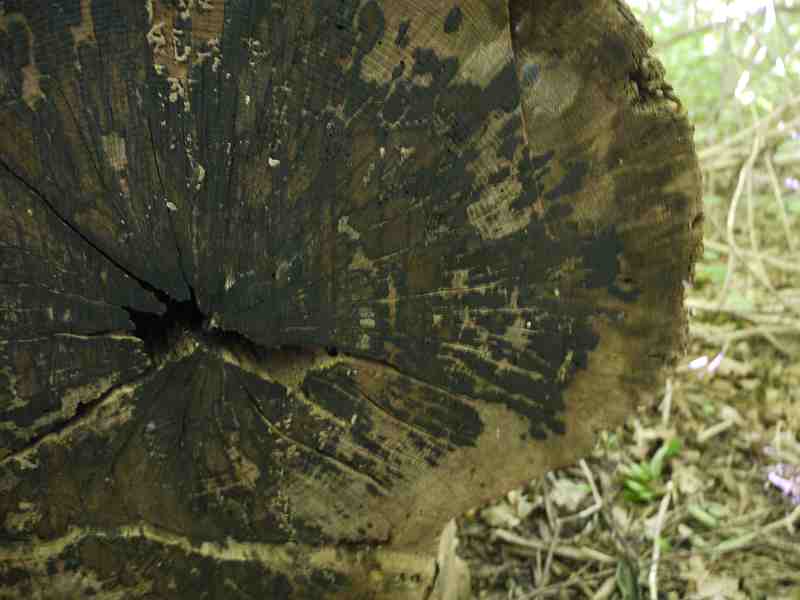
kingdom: Fungi
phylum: Ascomycota
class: Leotiomycetes
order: Helotiales
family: Helotiaceae
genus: Bispora
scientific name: Bispora pallescens
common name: måtte-snitskive
